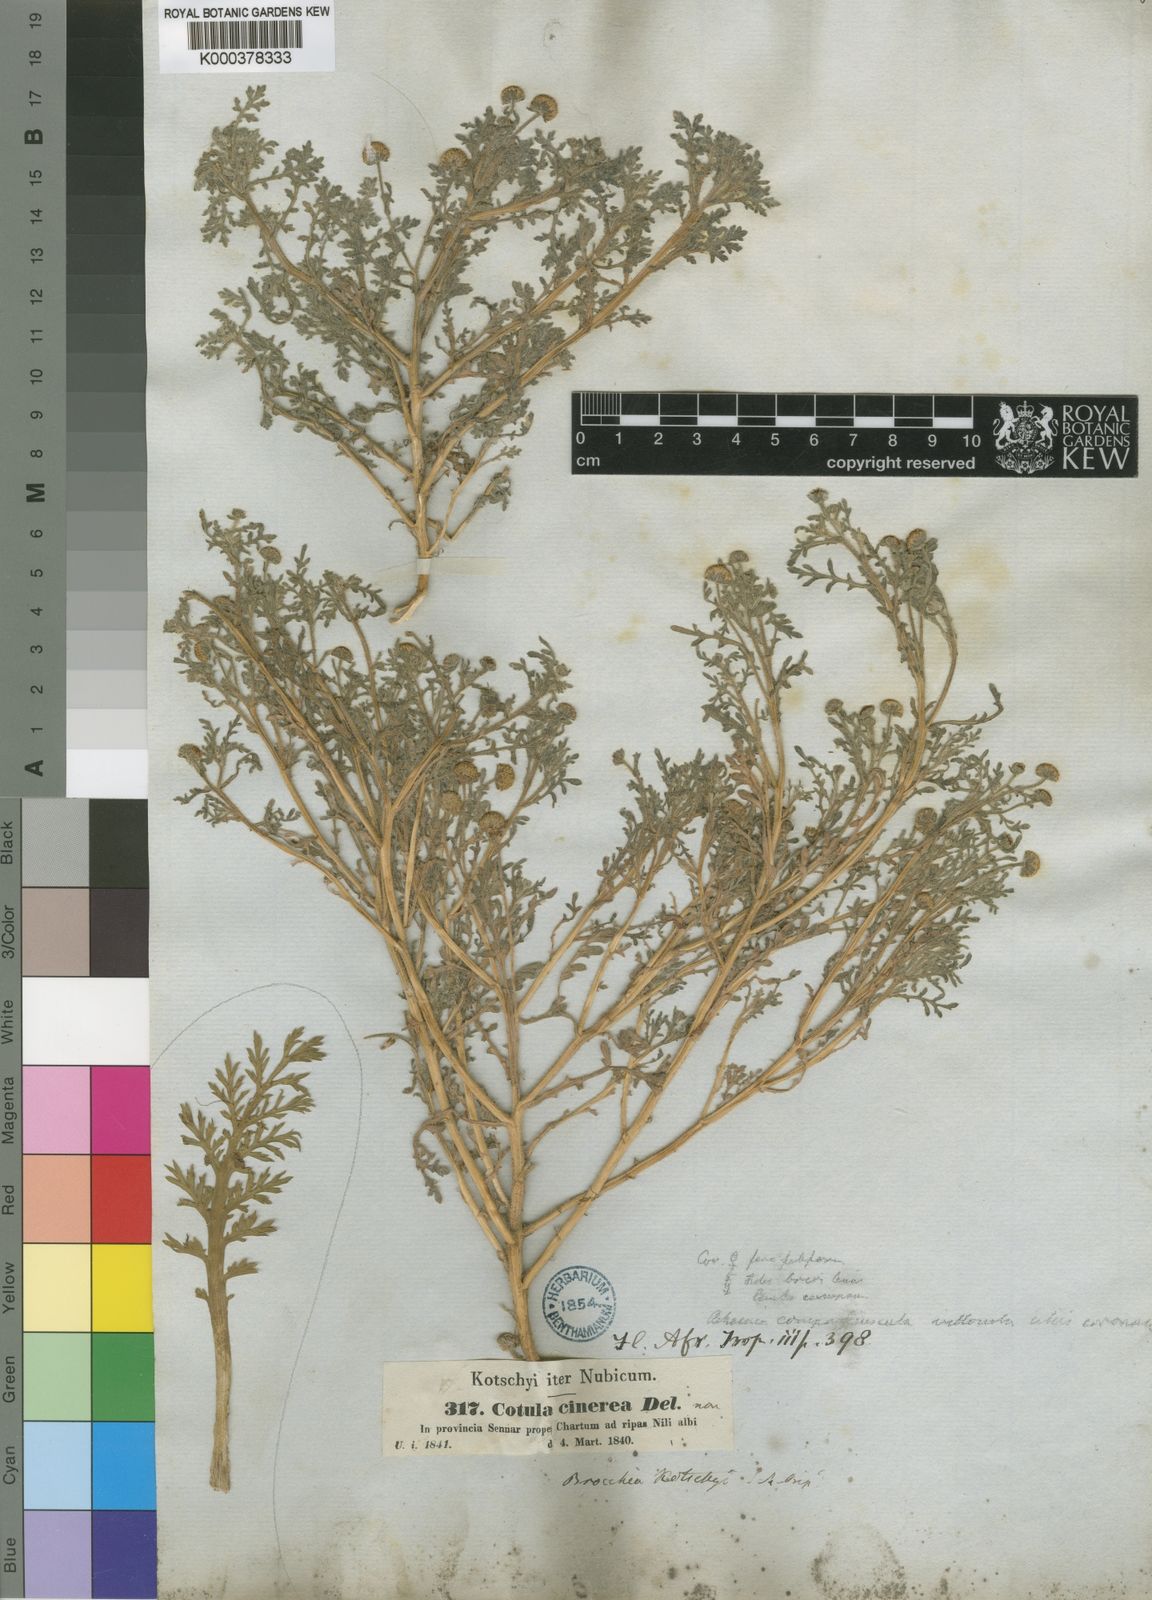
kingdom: Plantae
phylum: Tracheophyta
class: Magnoliopsida
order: Asterales
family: Asteraceae
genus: Cotula
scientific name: Cotula kotschyi
